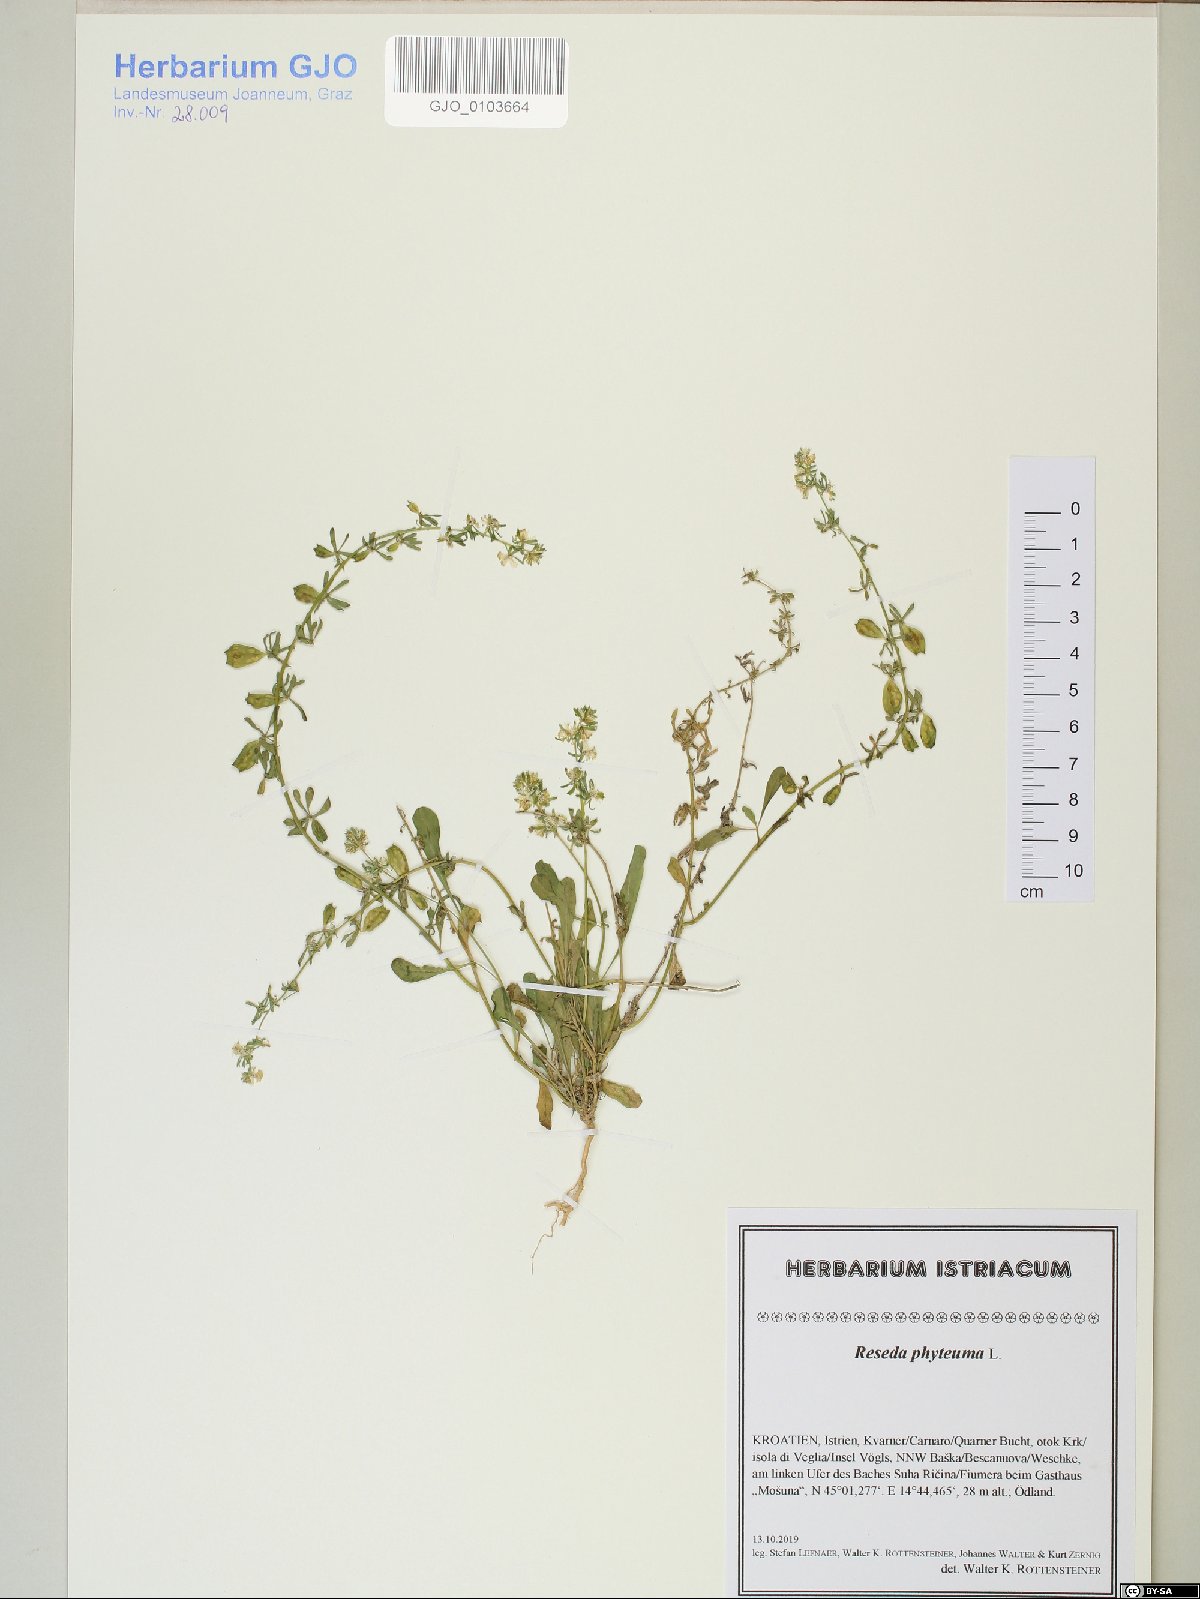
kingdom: Plantae
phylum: Tracheophyta
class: Magnoliopsida
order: Brassicales
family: Resedaceae
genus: Reseda
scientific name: Reseda phyteuma
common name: Corn mignonette
